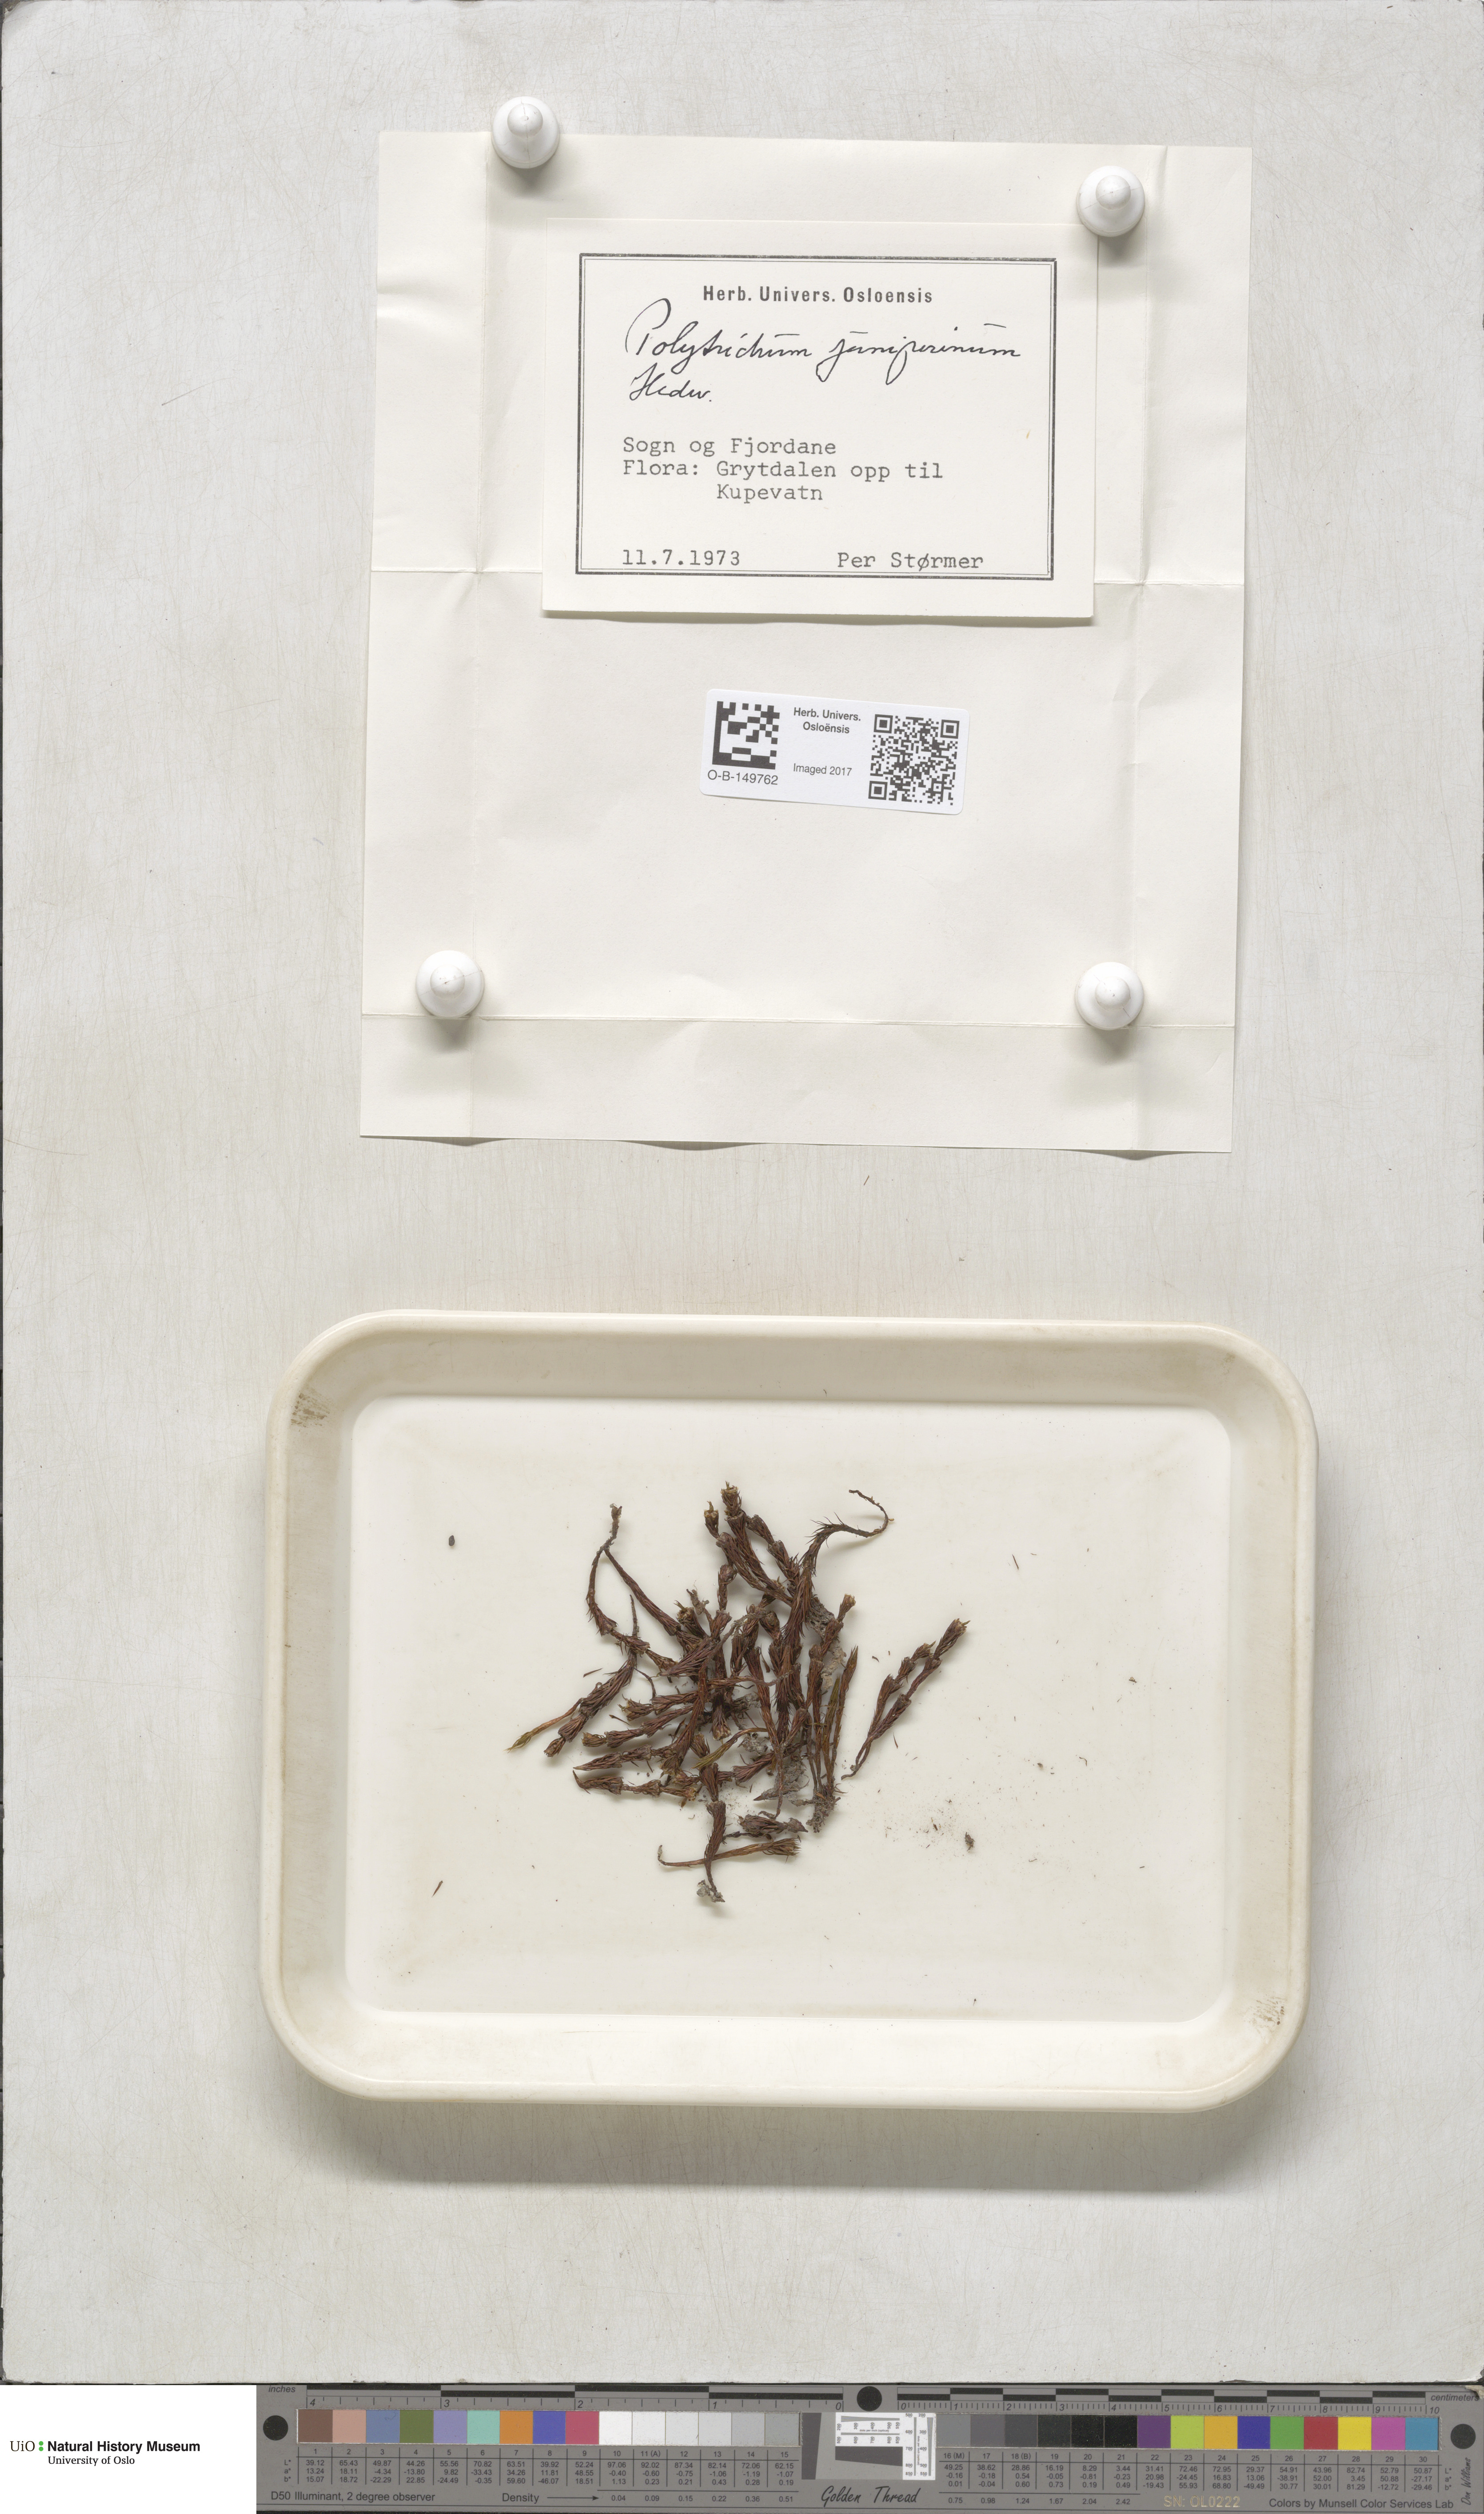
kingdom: Plantae
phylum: Bryophyta
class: Polytrichopsida
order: Polytrichales
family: Polytrichaceae
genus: Polytrichum
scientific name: Polytrichum juniperinum
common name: Juniper haircap moss
